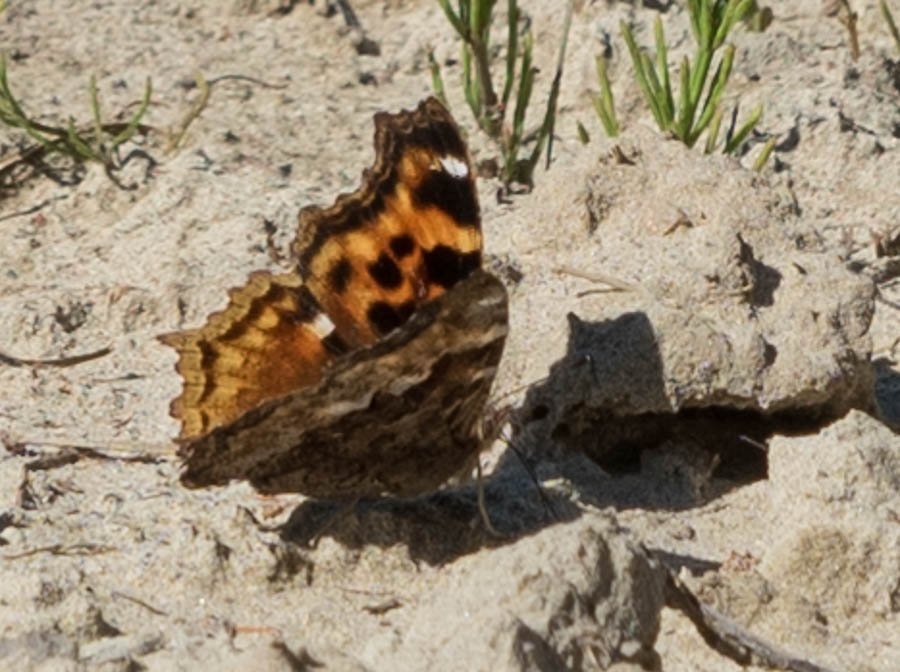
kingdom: Animalia
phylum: Arthropoda
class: Insecta
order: Lepidoptera
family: Nymphalidae
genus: Polygonia
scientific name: Polygonia vaualbum
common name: Compton Tortoiseshell
